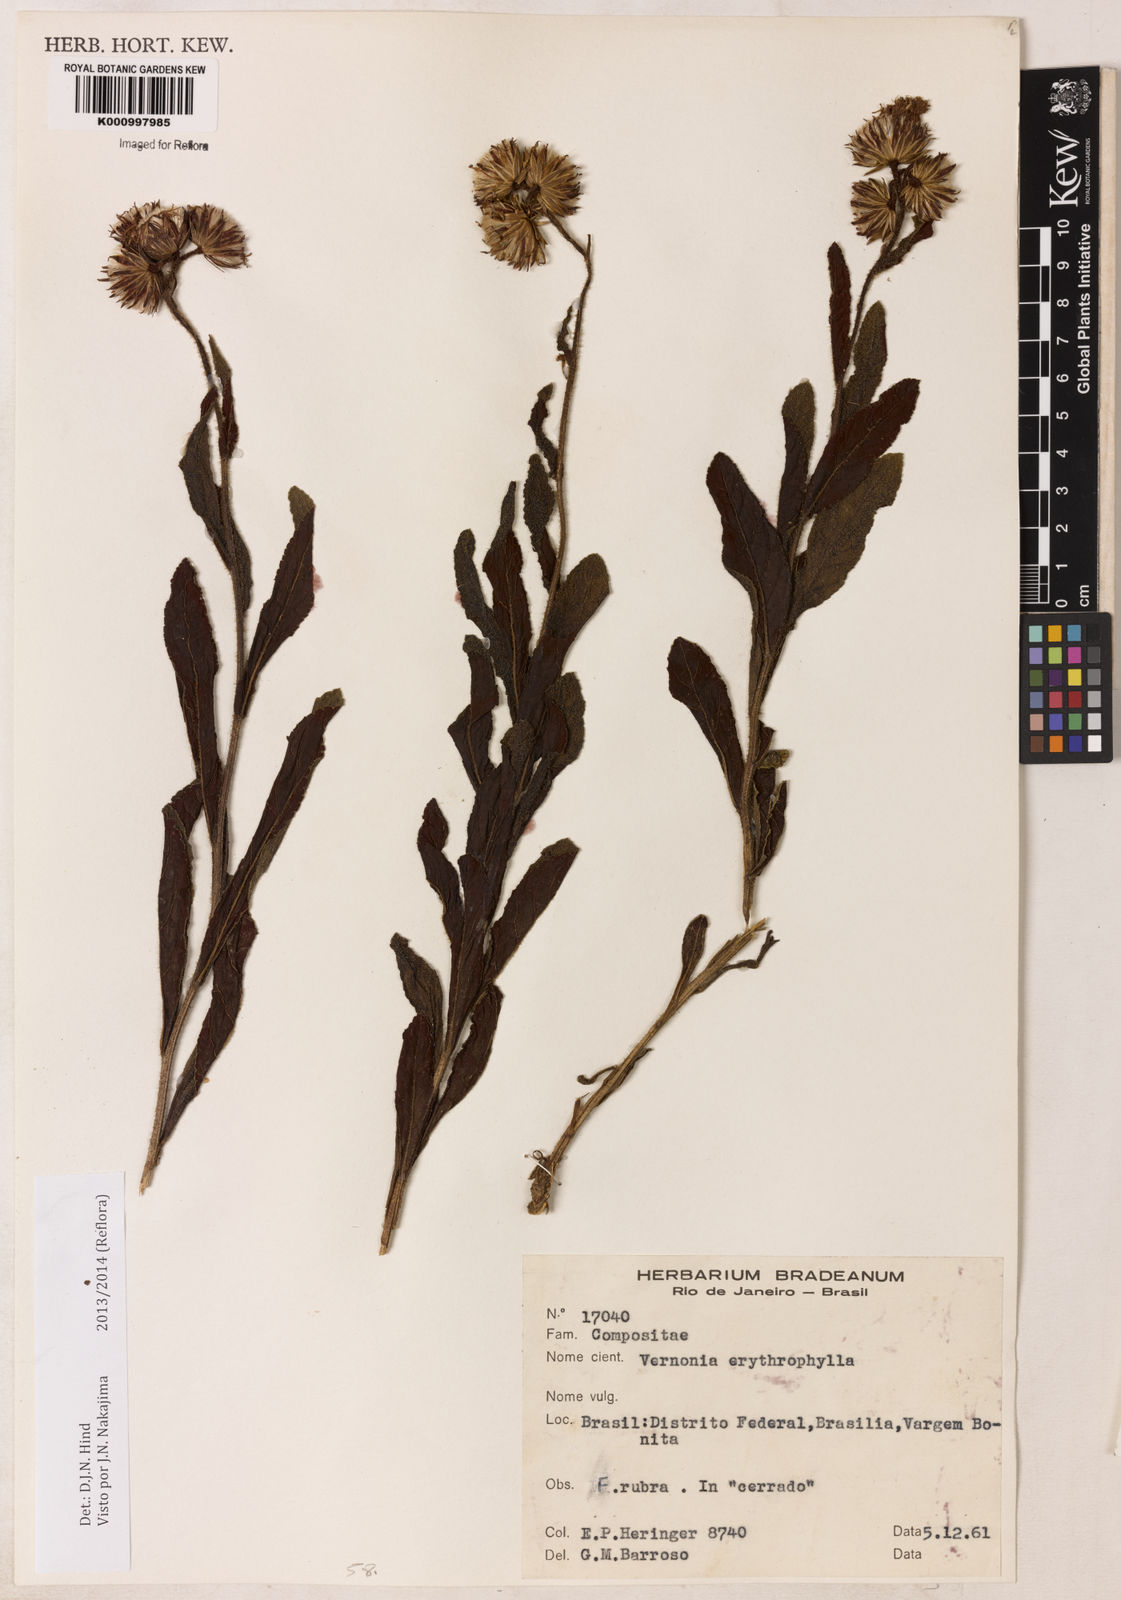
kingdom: Plantae
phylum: Tracheophyta
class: Magnoliopsida
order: Asterales
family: Asteraceae
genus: Lessingianthus
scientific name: Lessingianthus erythrophilus
